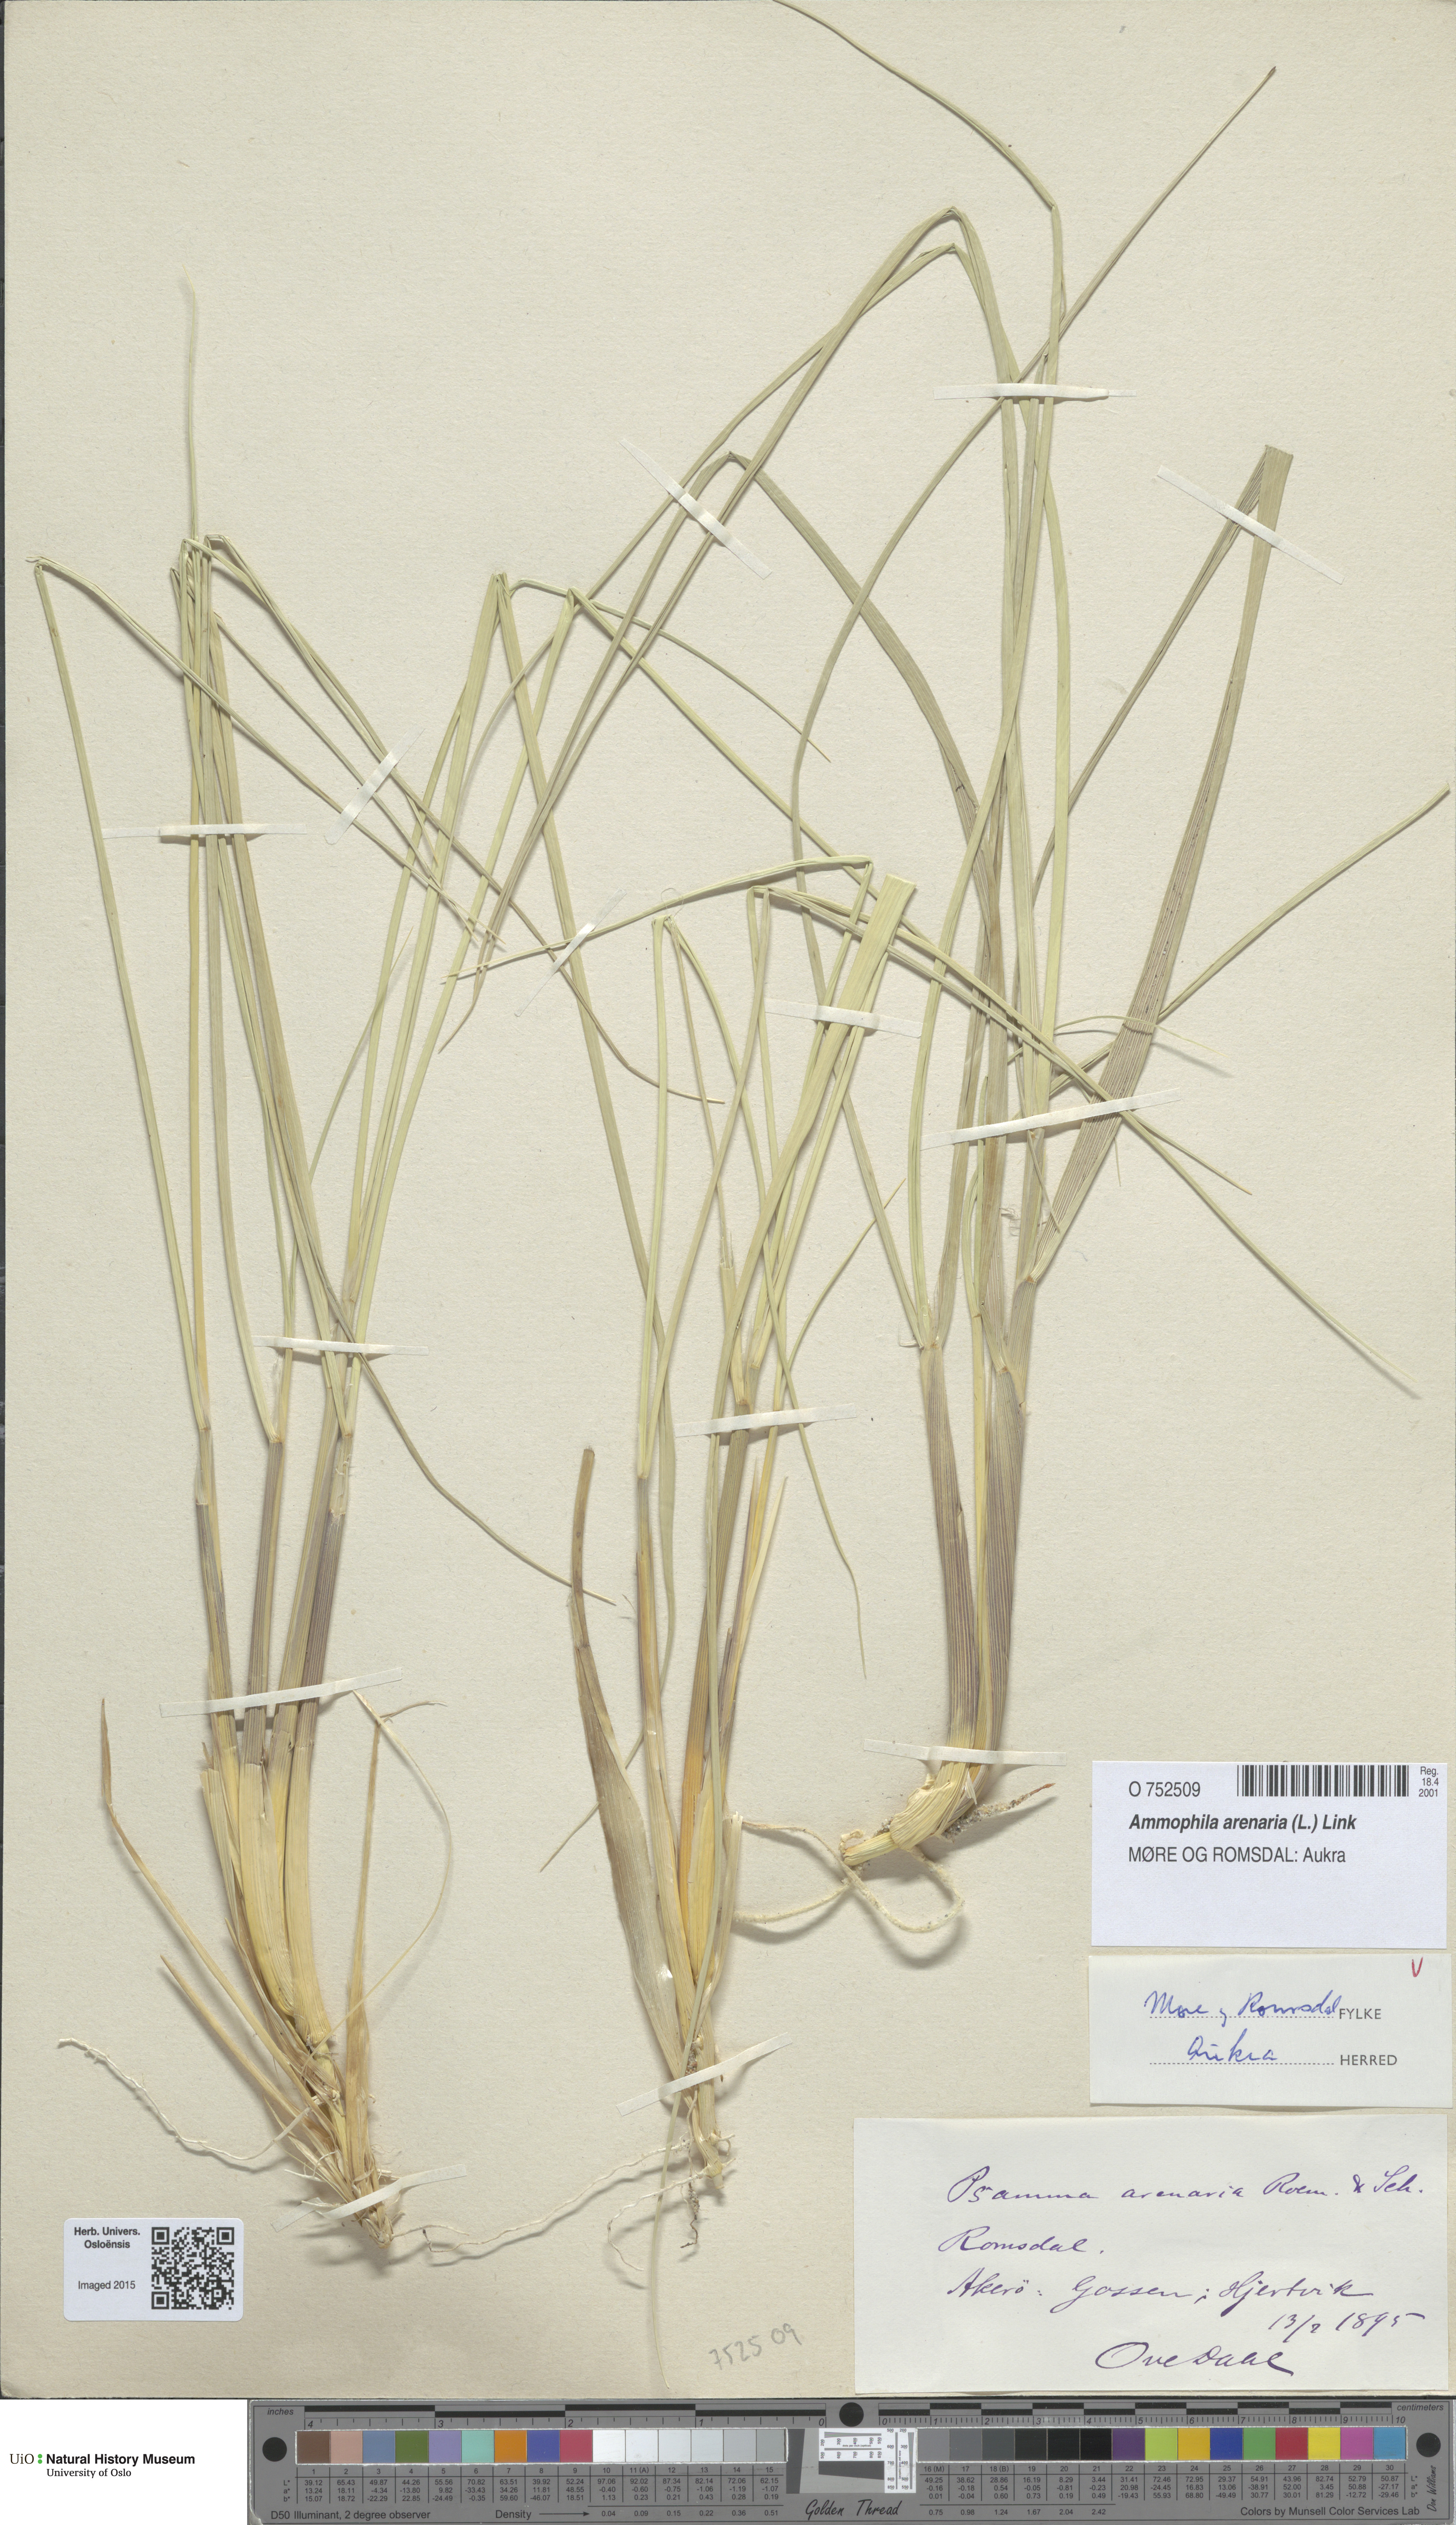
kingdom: Plantae
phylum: Tracheophyta
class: Liliopsida
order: Poales
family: Poaceae
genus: Calamagrostis
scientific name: Calamagrostis arenaria
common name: European beachgrass
